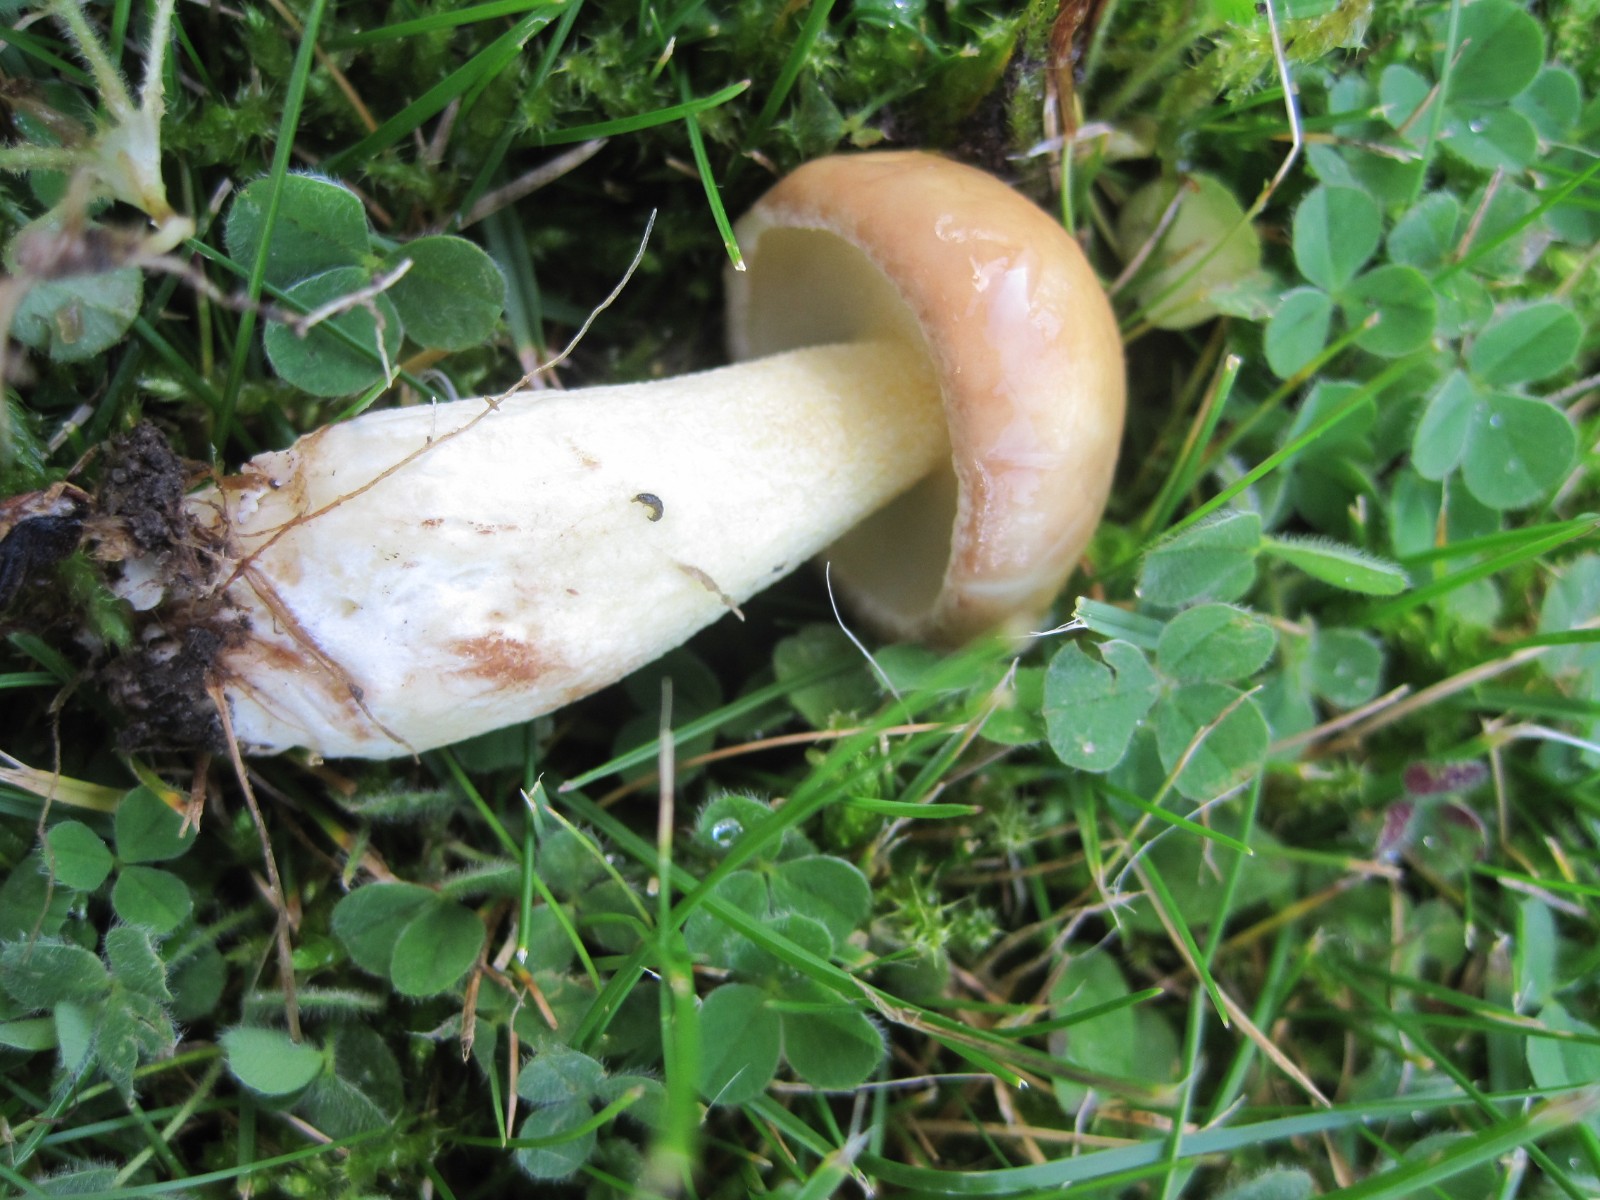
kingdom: Fungi
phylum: Basidiomycota
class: Agaricomycetes
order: Boletales
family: Suillaceae
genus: Suillus
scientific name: Suillus granulatus
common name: kornet slimrørhat
